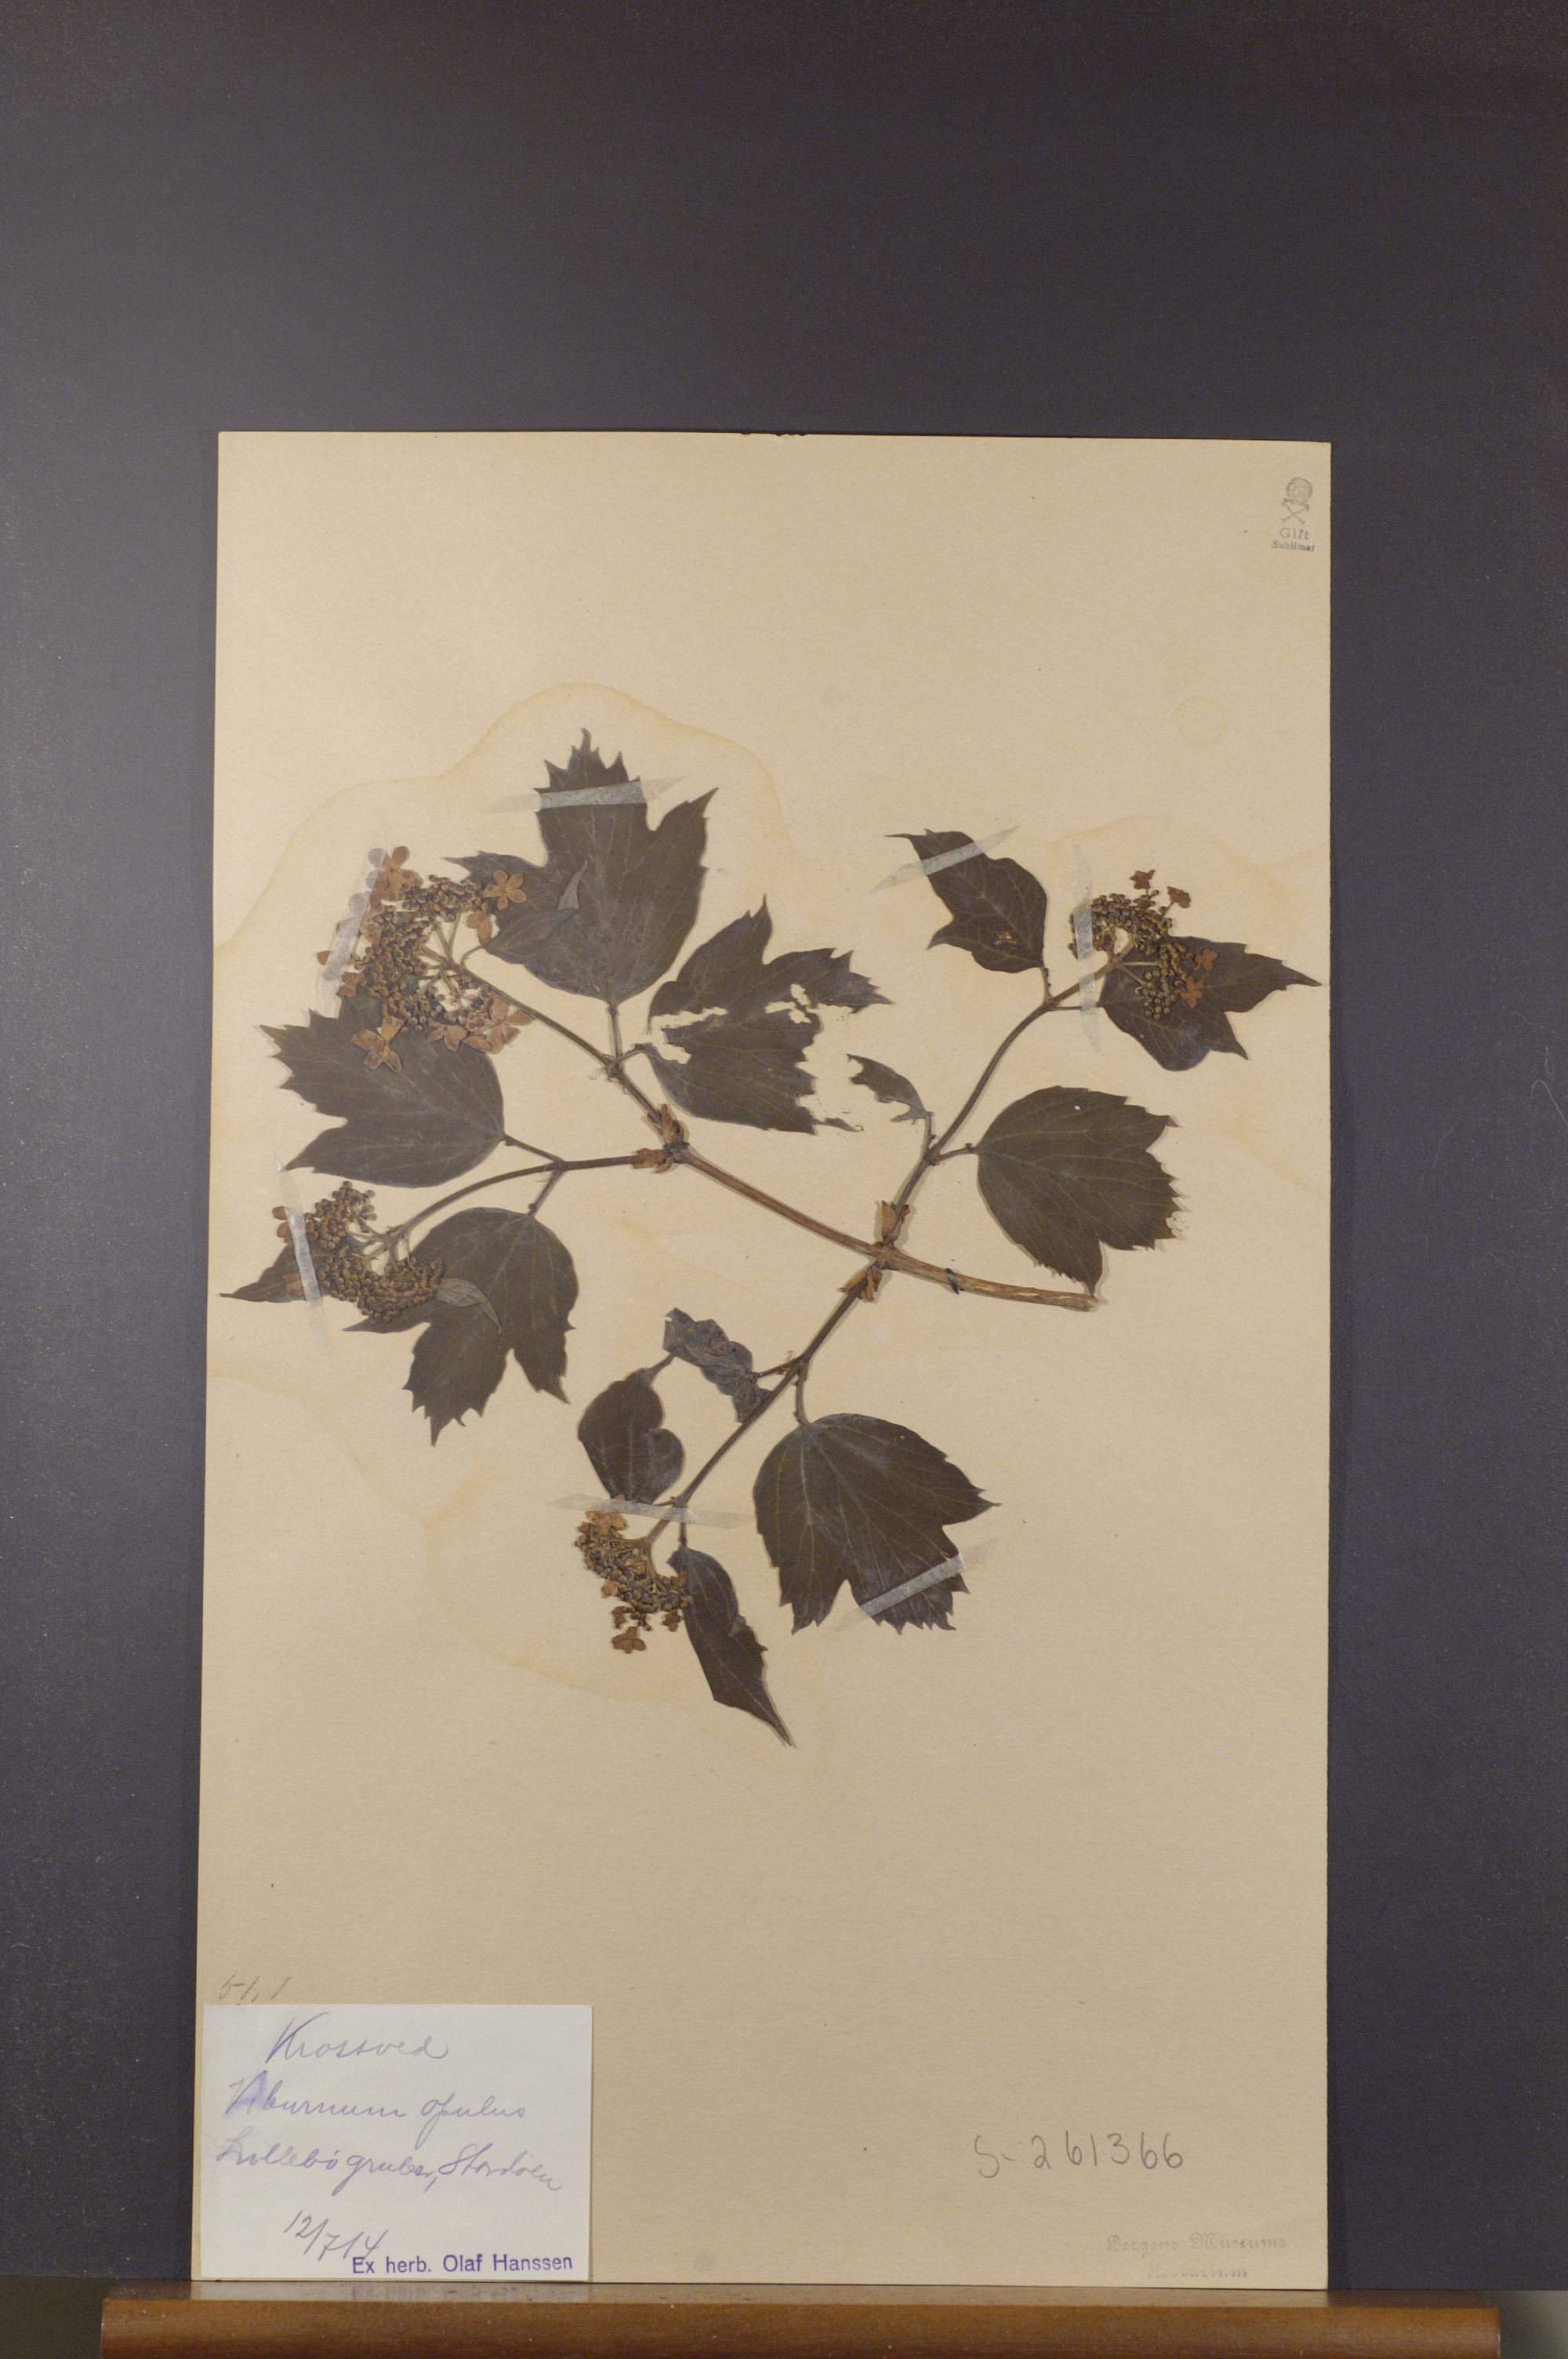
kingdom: Plantae
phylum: Tracheophyta
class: Magnoliopsida
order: Dipsacales
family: Viburnaceae
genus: Viburnum
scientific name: Viburnum opulus
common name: Guelder-rose
